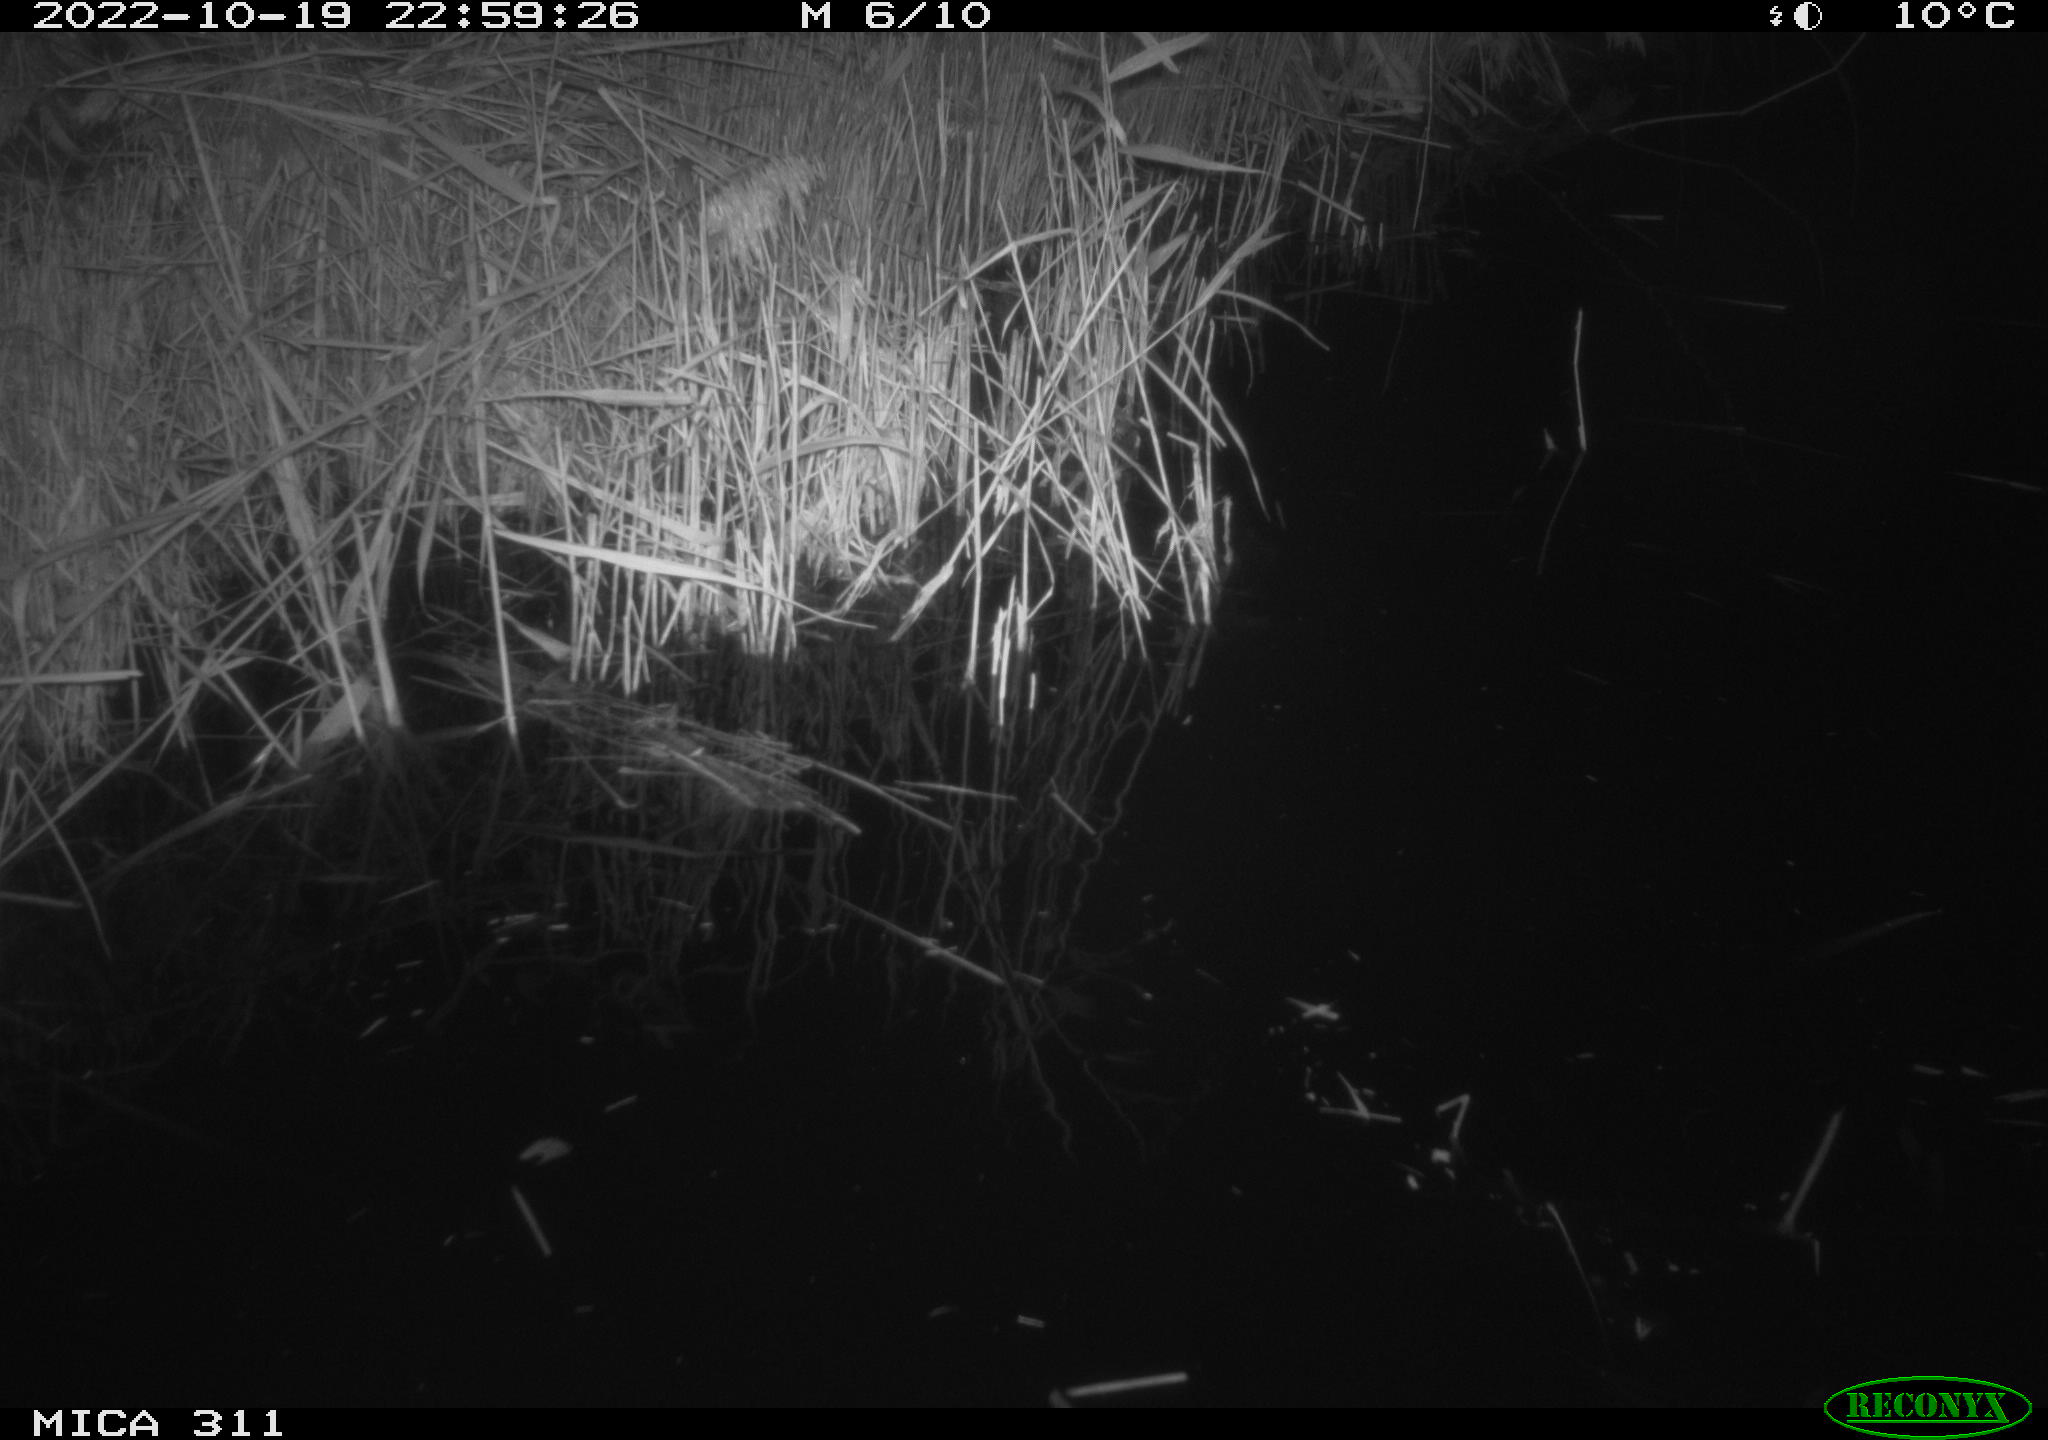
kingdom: Animalia
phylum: Chordata
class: Mammalia
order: Rodentia
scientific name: Rodentia
